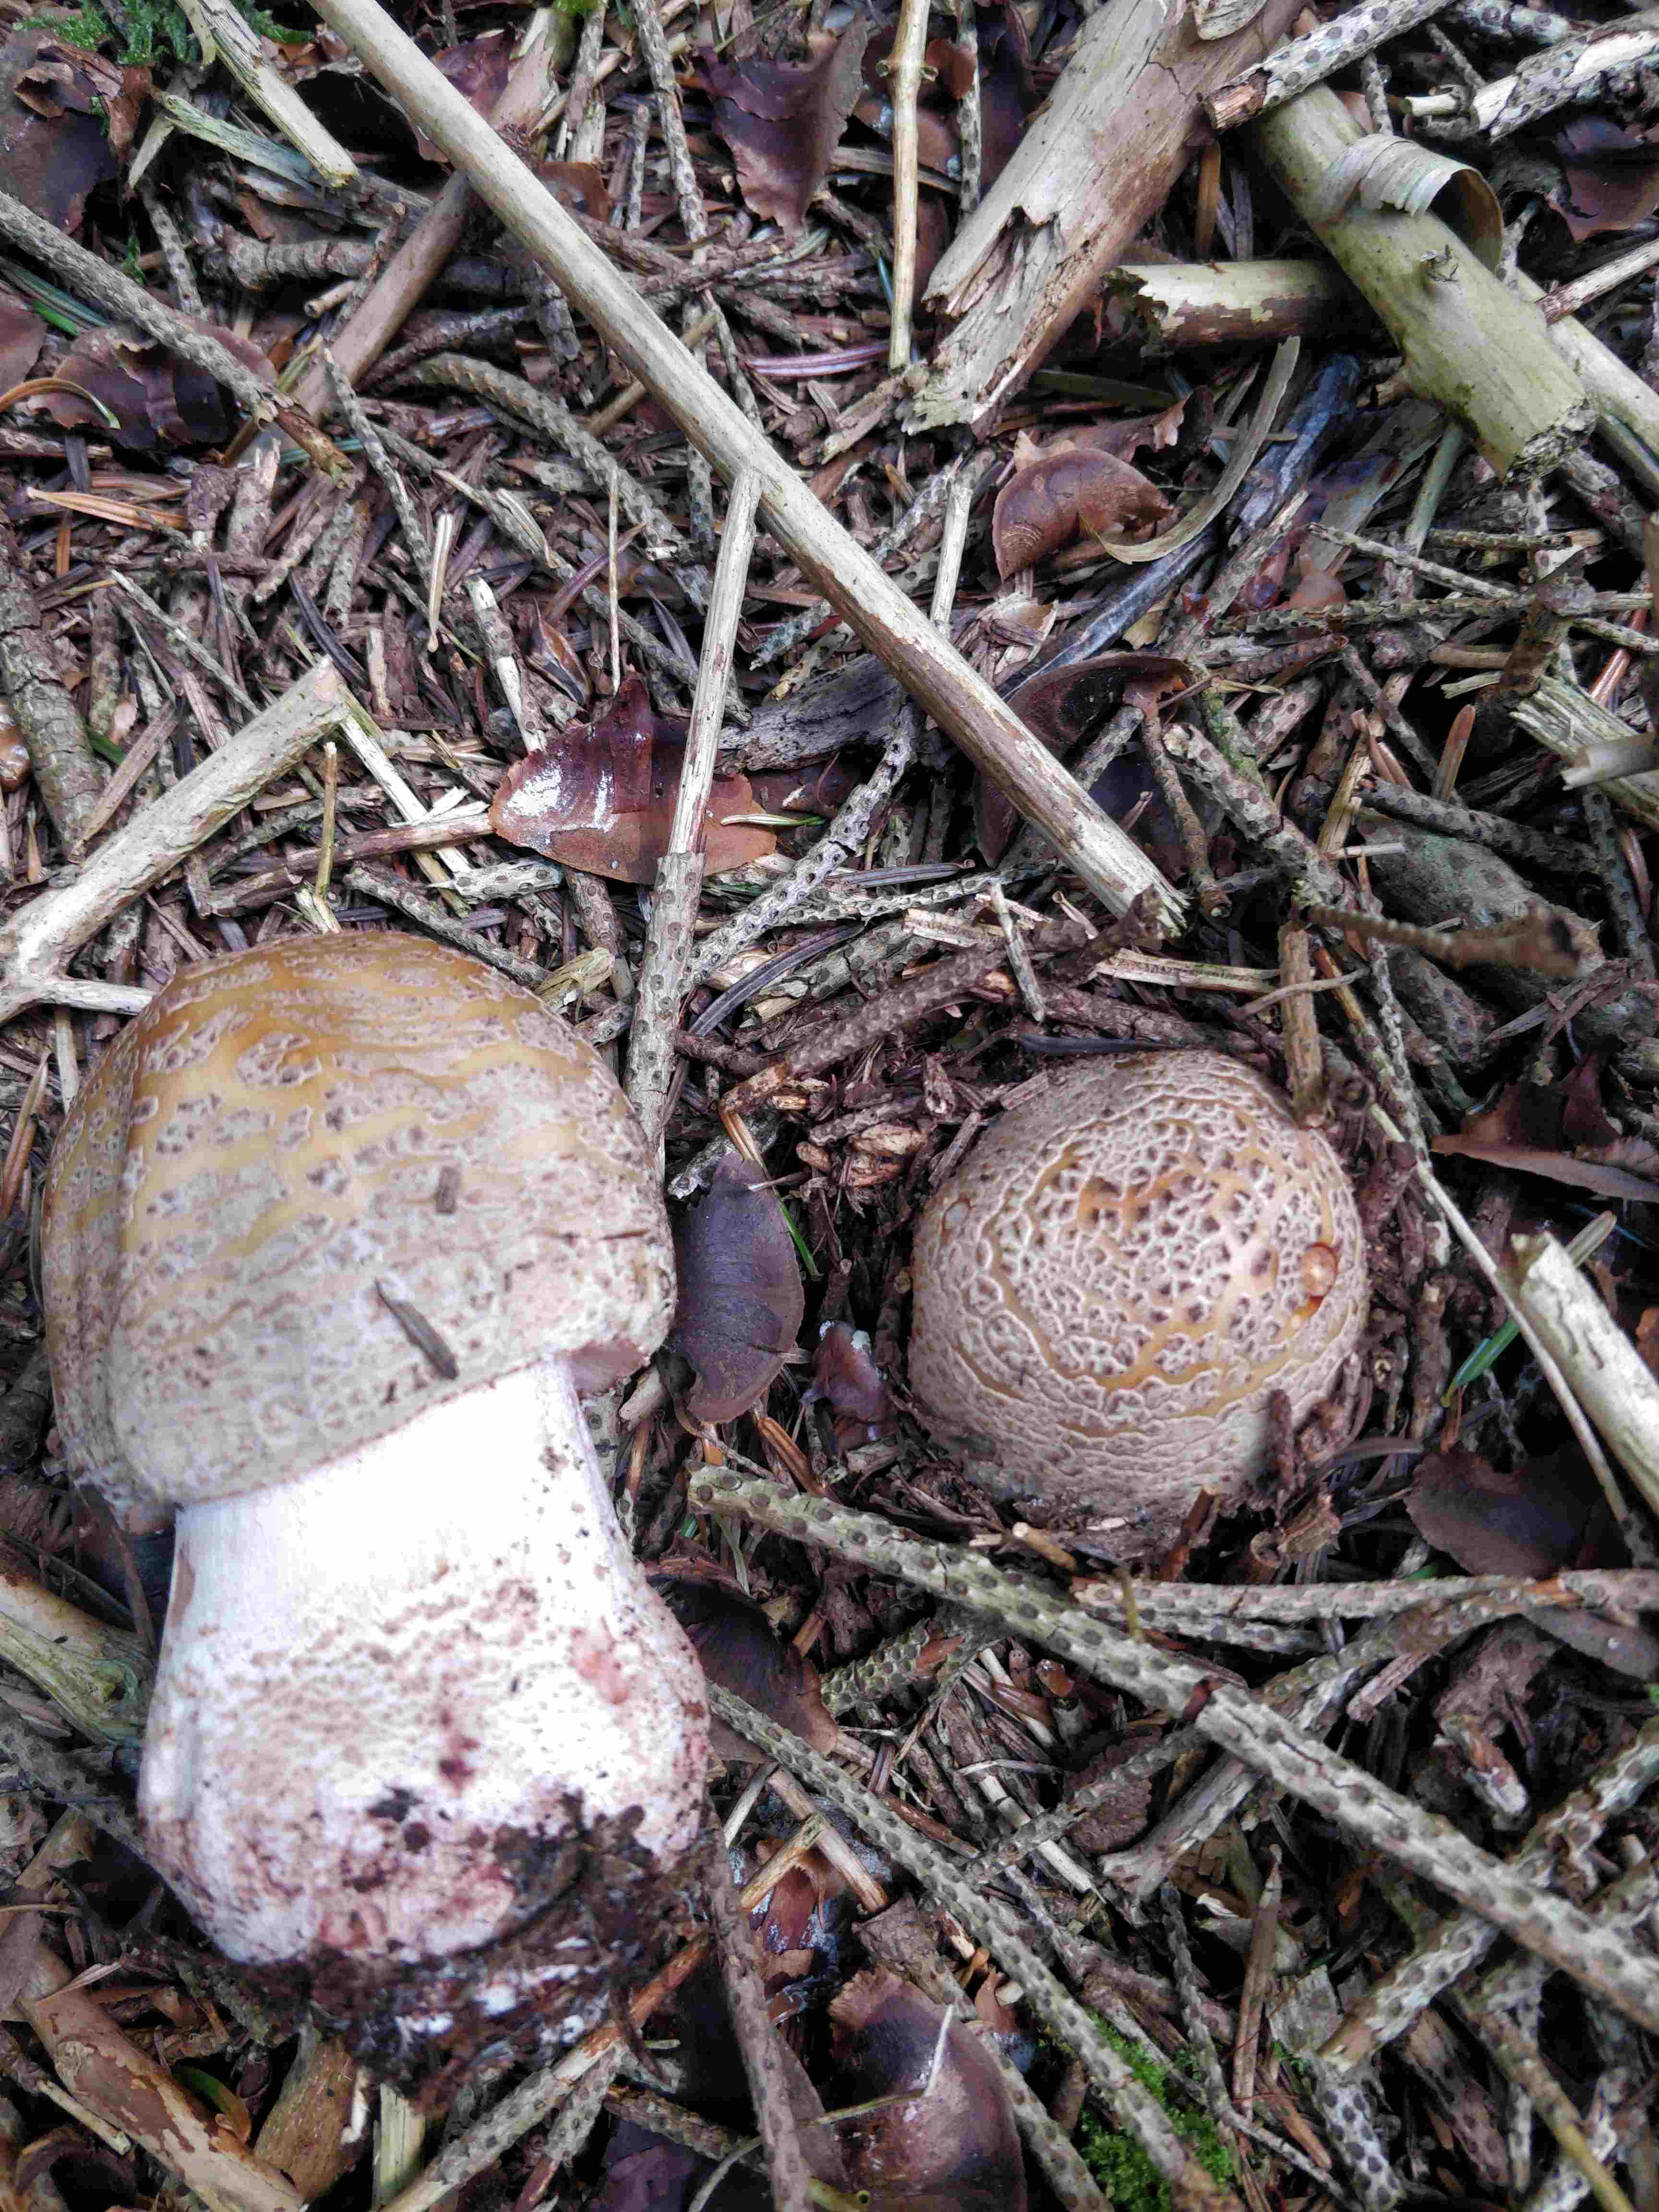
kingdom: Fungi
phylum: Basidiomycota
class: Agaricomycetes
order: Agaricales
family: Amanitaceae
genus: Amanita
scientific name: Amanita rubescens
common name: rødmende fluesvamp
